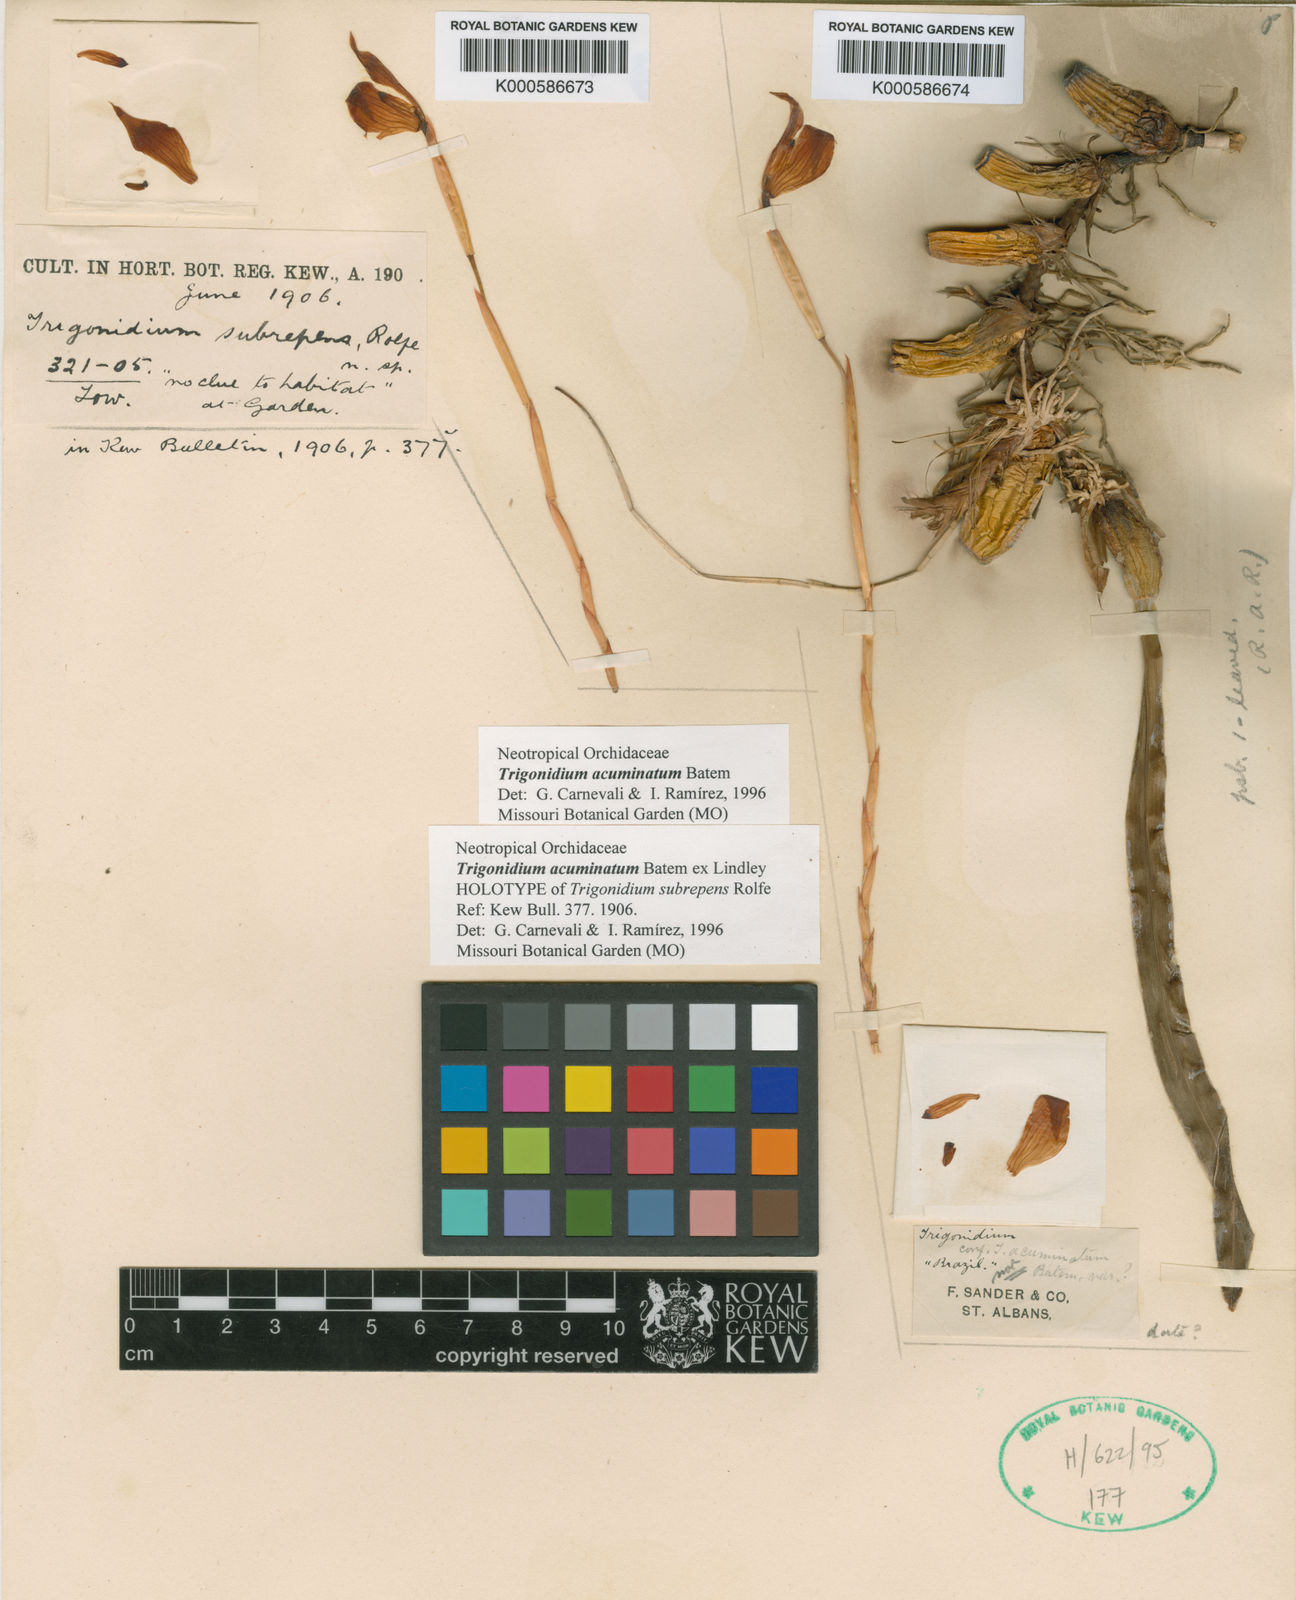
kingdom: Animalia
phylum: Arthropoda
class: Insecta
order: Orthoptera
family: Trigonidiidae
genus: Trigonidium
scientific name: Trigonidium
